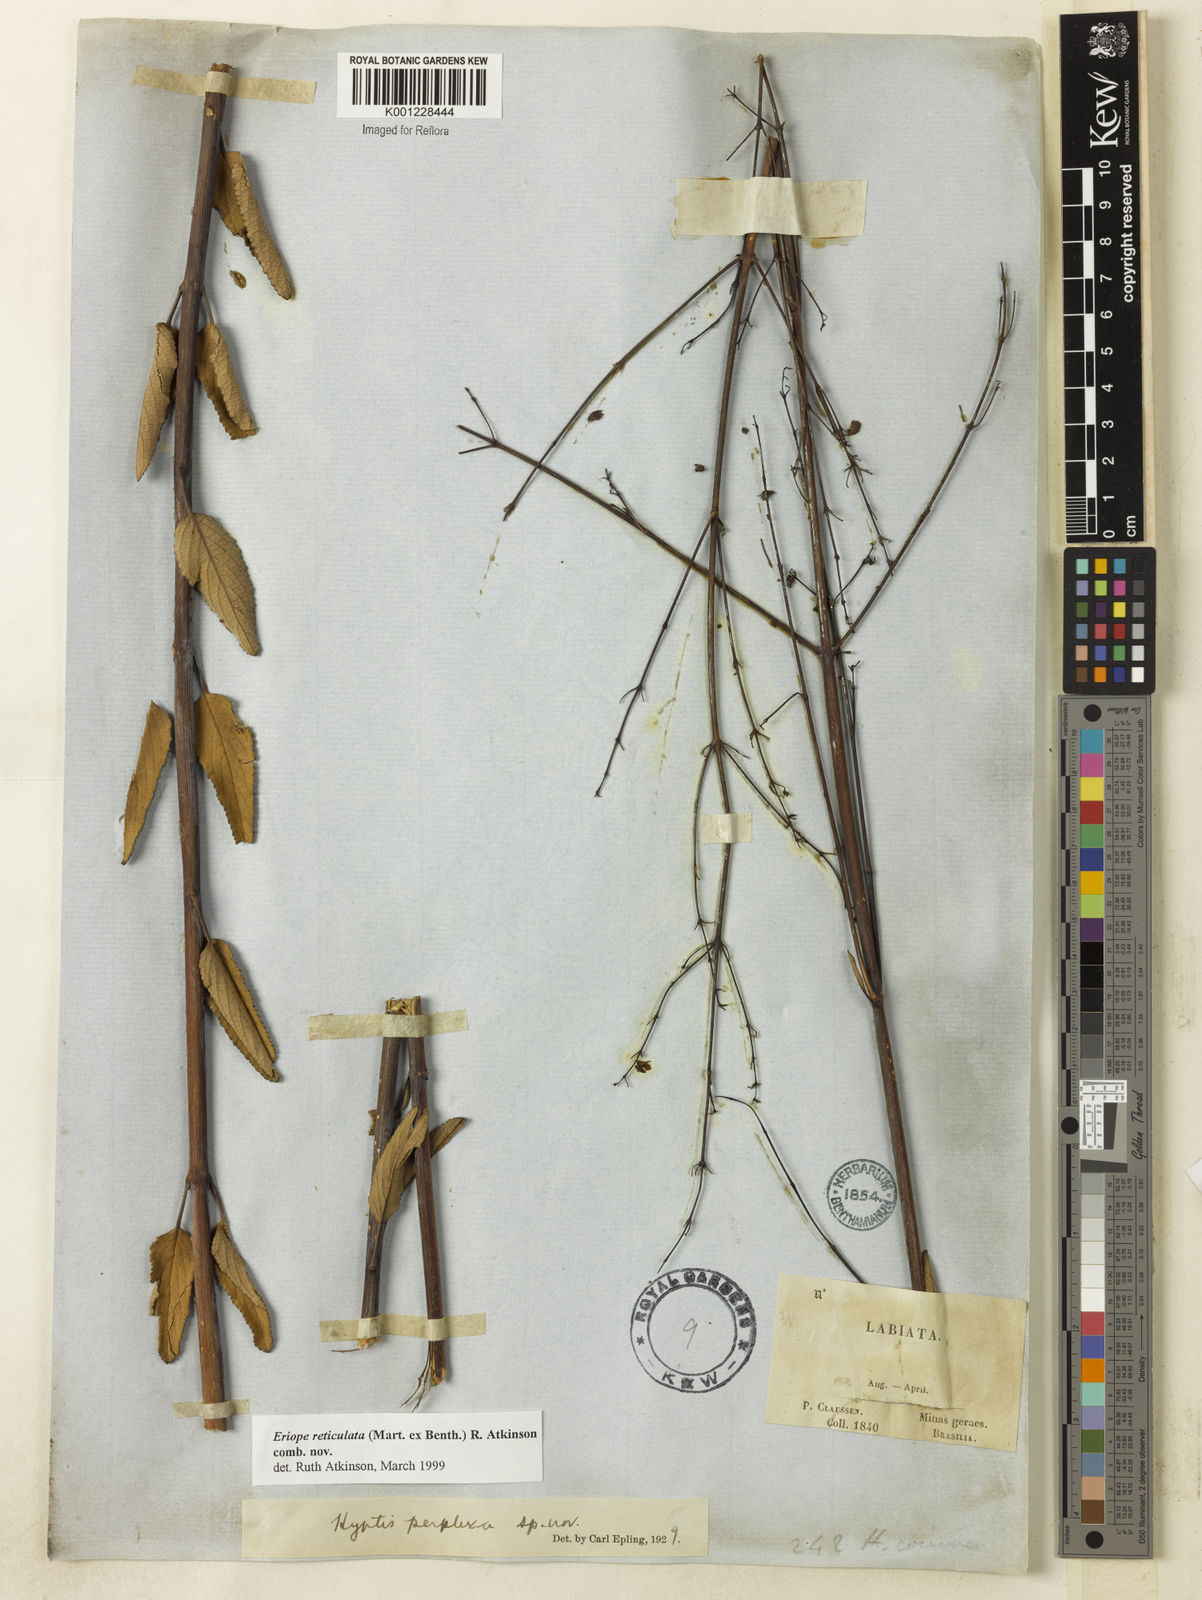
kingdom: Plantae
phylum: Tracheophyta
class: Magnoliopsida
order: Lamiales
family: Lamiaceae
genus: Hypenia
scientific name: Hypenia reticulata
